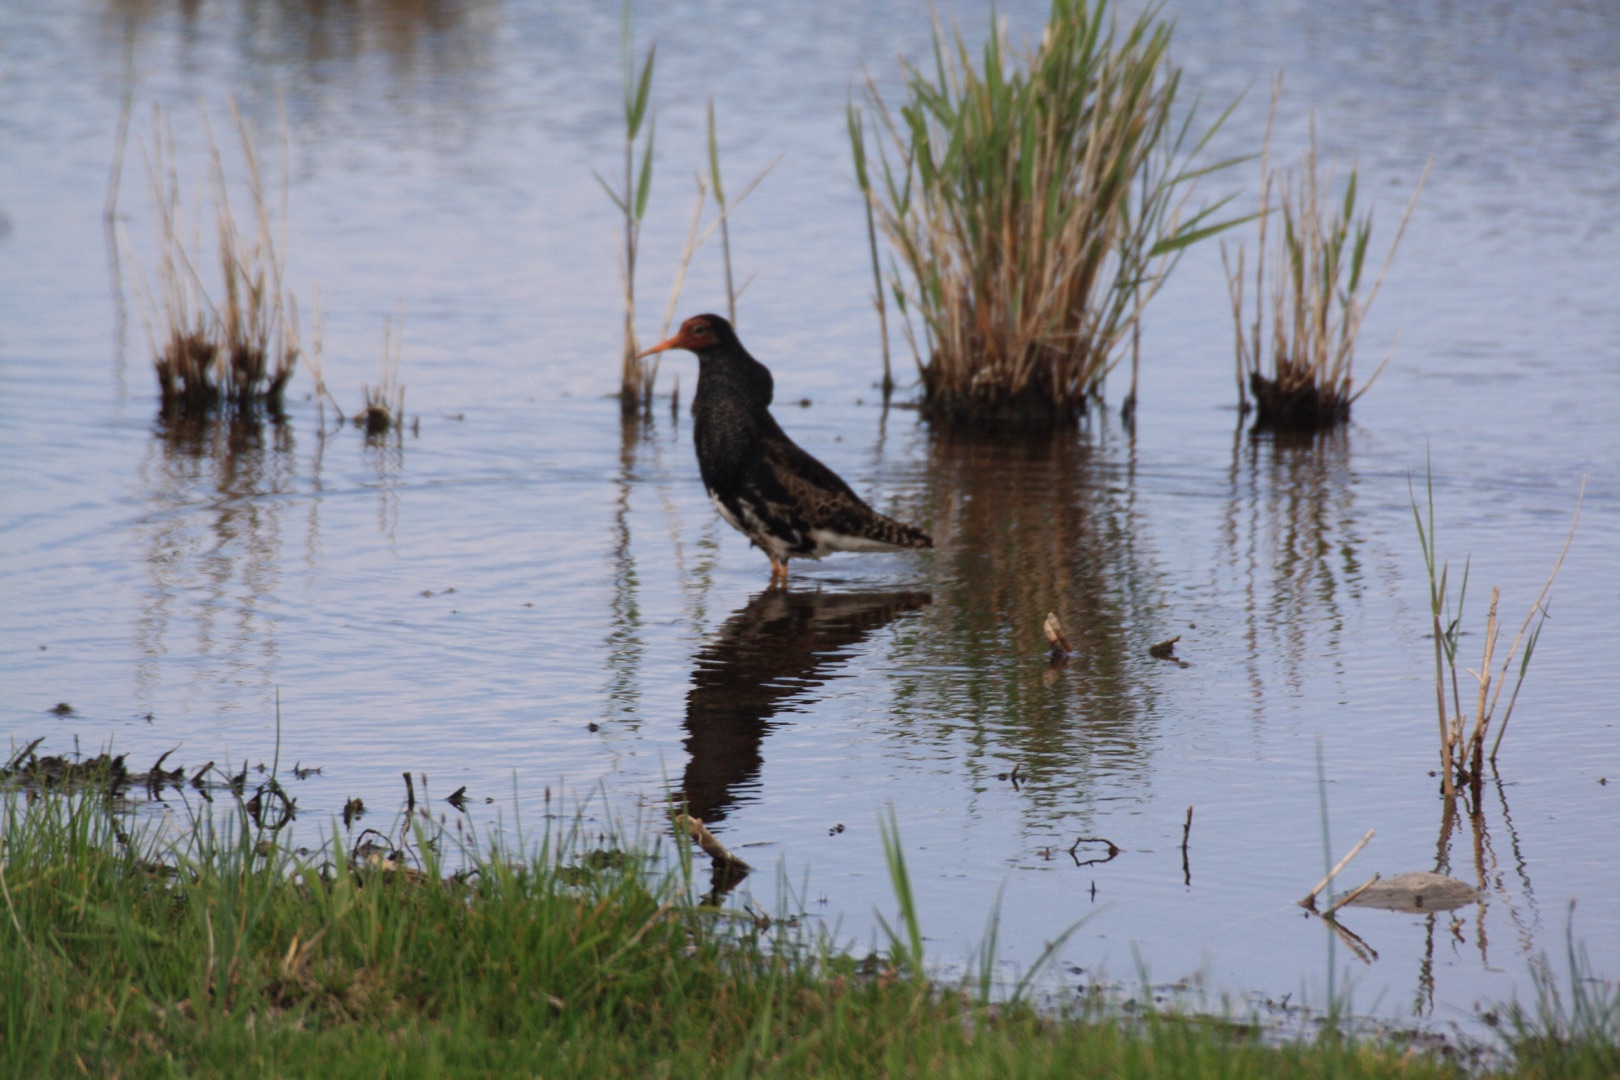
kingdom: Animalia
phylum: Chordata
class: Aves
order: Charadriiformes
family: Scolopacidae
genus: Calidris
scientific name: Calidris pugnax
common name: Brushane
